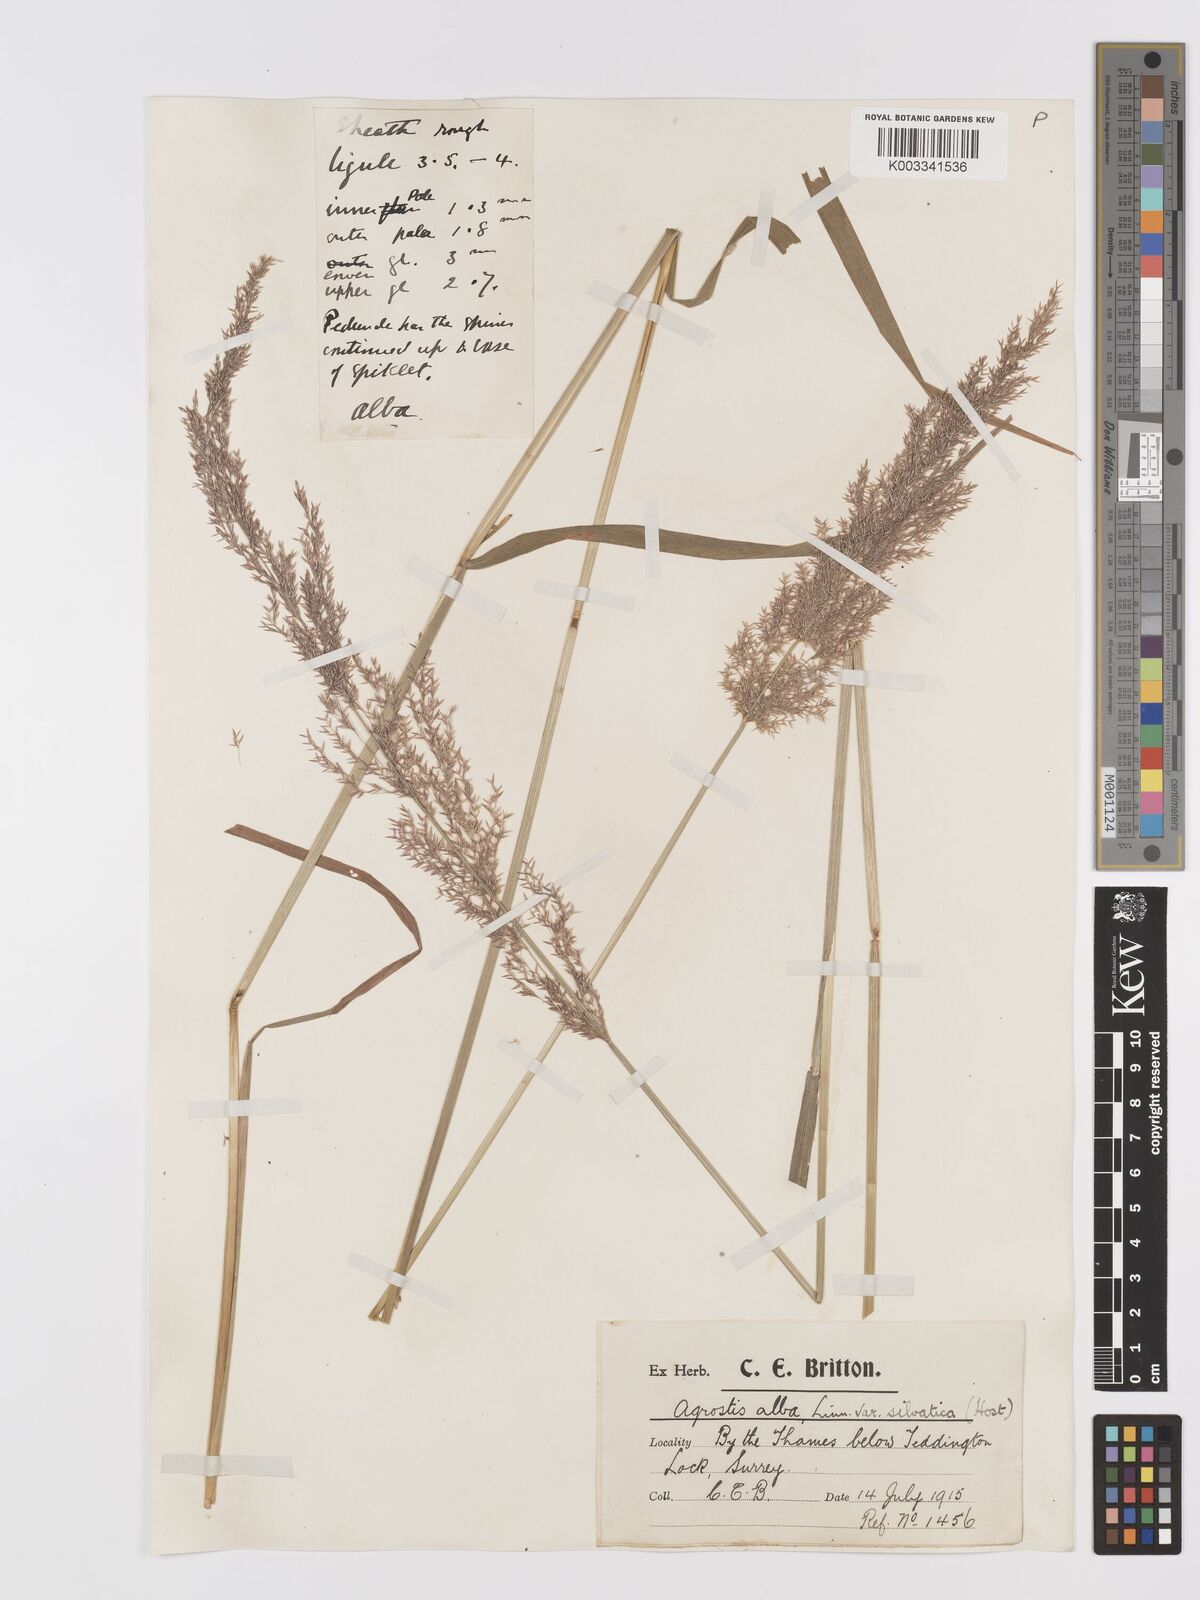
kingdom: Plantae
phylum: Tracheophyta
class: Liliopsida
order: Poales
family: Poaceae
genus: Agrostis
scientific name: Agrostis stolonifera
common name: Creeping bentgrass
